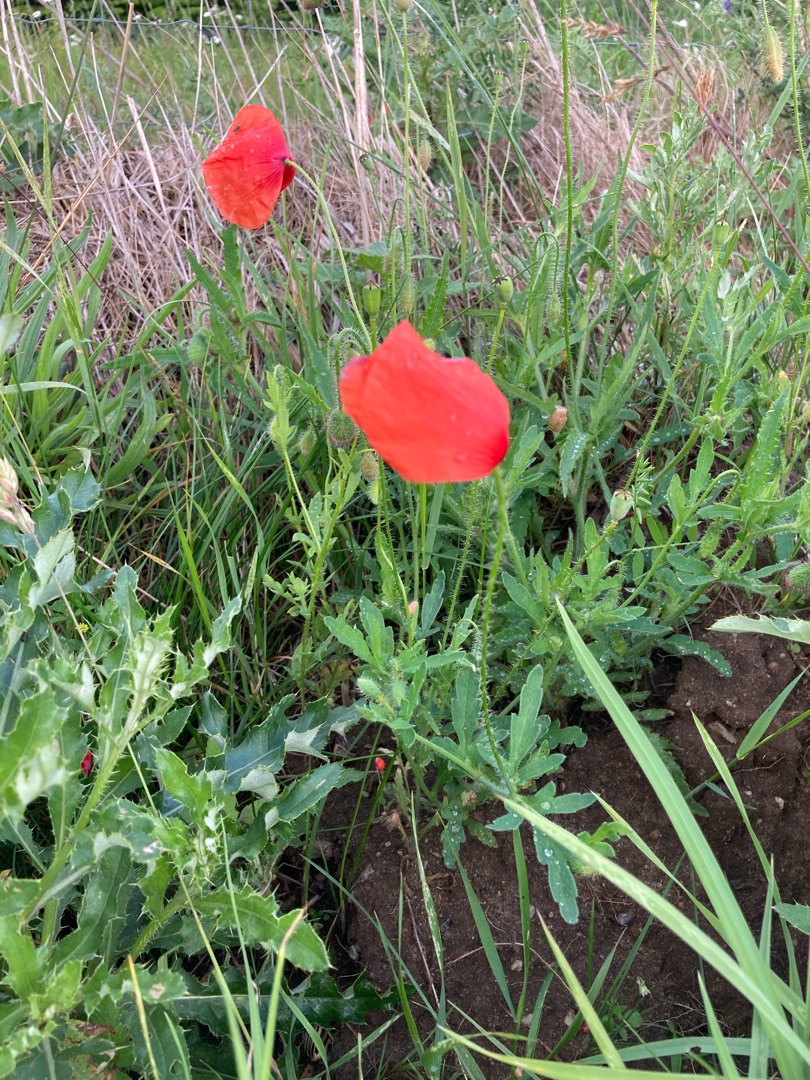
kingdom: Plantae
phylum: Tracheophyta
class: Magnoliopsida
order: Ranunculales
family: Papaveraceae
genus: Papaver
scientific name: Papaver rhoeas
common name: Korn-valmue
